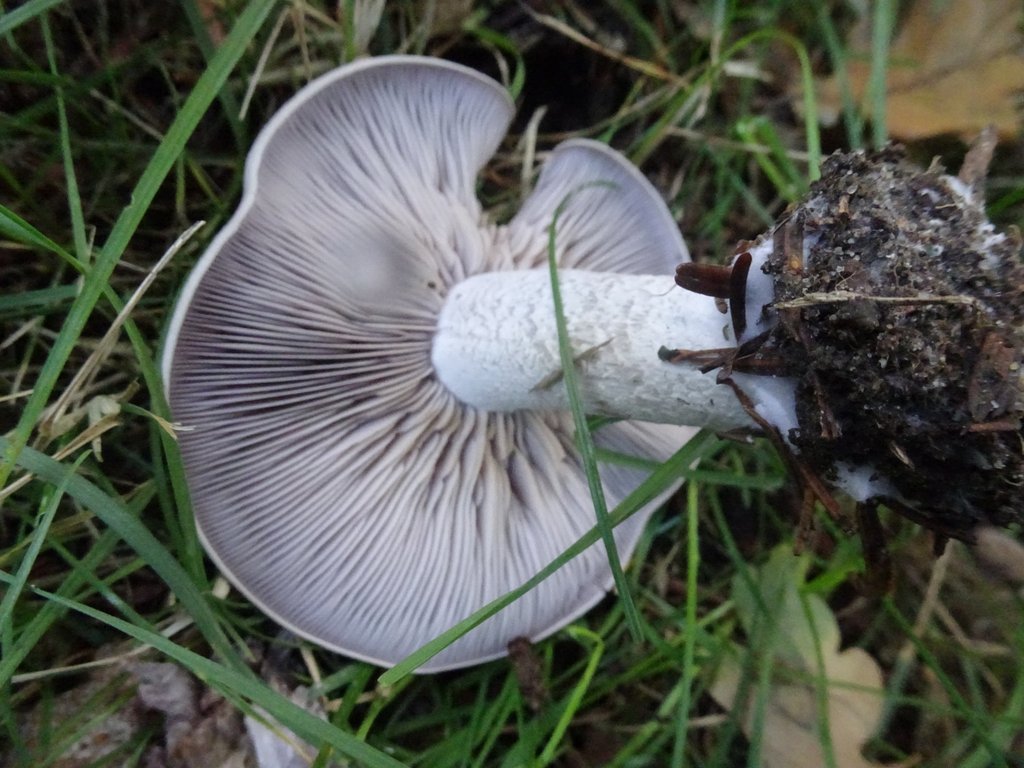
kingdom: Fungi
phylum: Basidiomycota
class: Agaricomycetes
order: Agaricales
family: Tricholomataceae
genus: Lepista
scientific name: Lepista nuda
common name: violet hekseringshat
